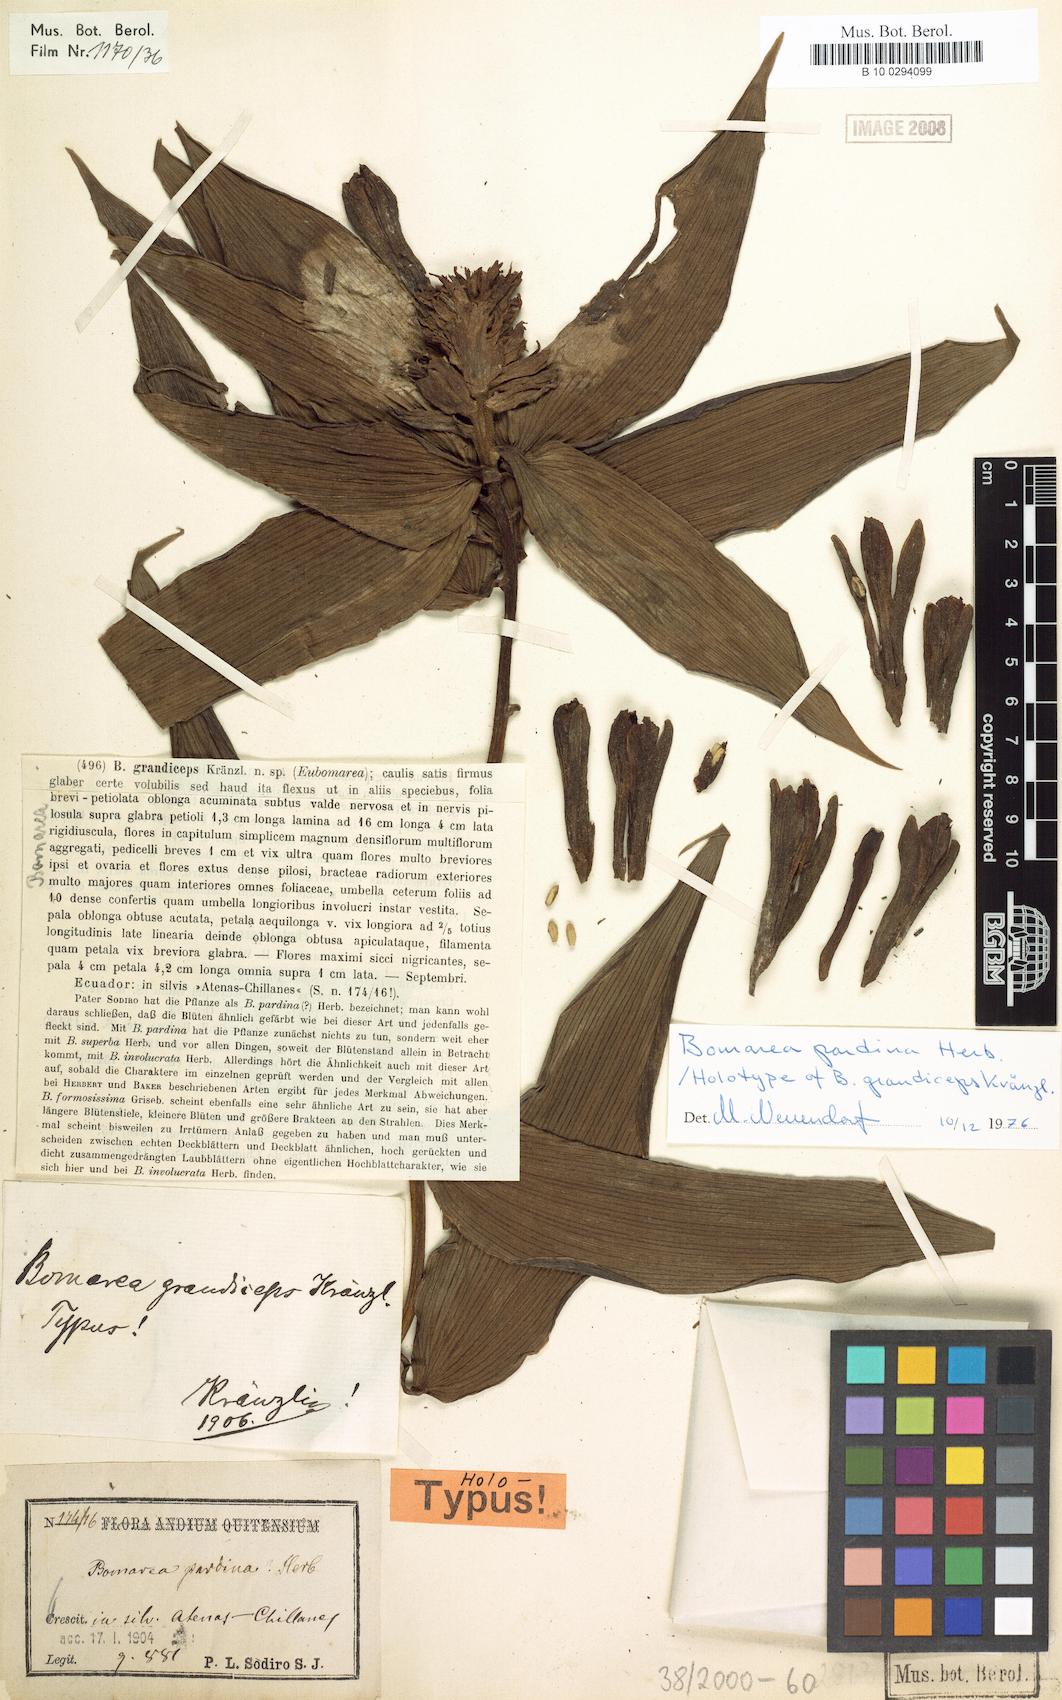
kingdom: Plantae
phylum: Tracheophyta
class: Liliopsida
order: Liliales
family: Alstroemeriaceae
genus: Bomarea
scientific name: Bomarea pardina
